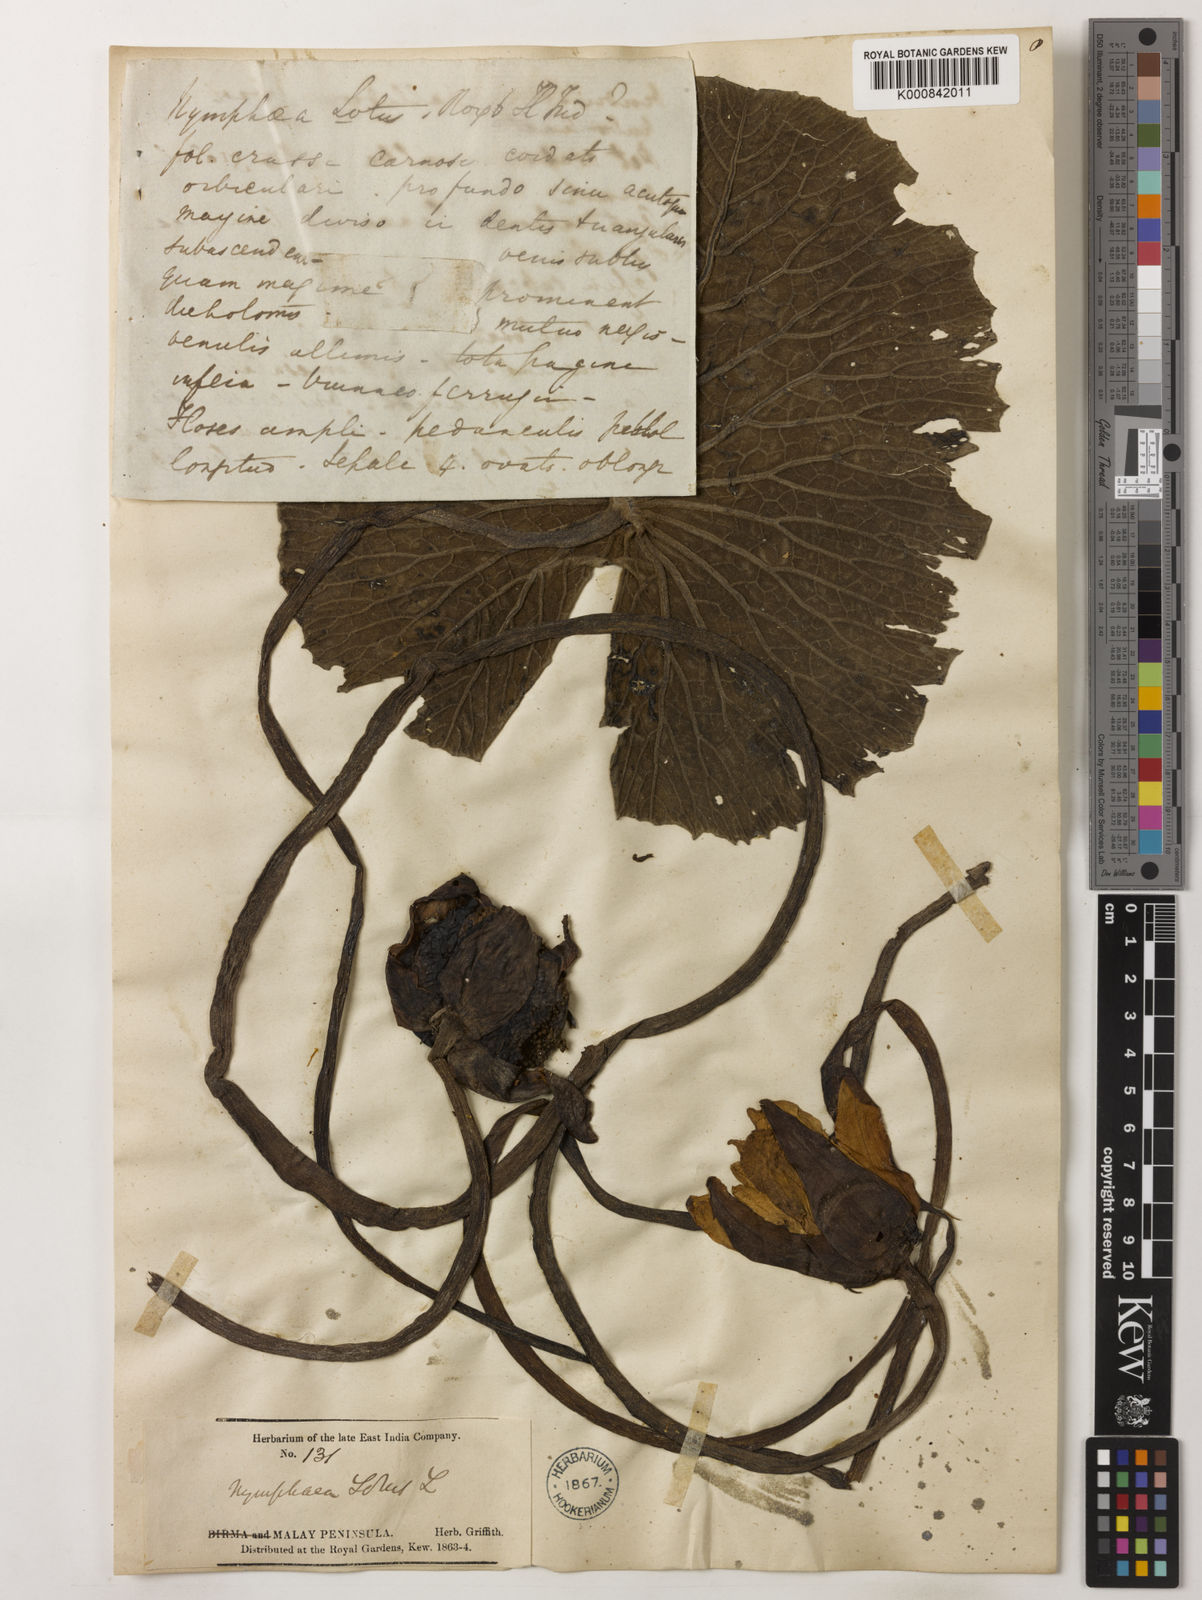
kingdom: Plantae
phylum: Tracheophyta
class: Magnoliopsida
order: Nymphaeales
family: Nymphaeaceae
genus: Nymphaea
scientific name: Nymphaea pubescens
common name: Hairy water lily
